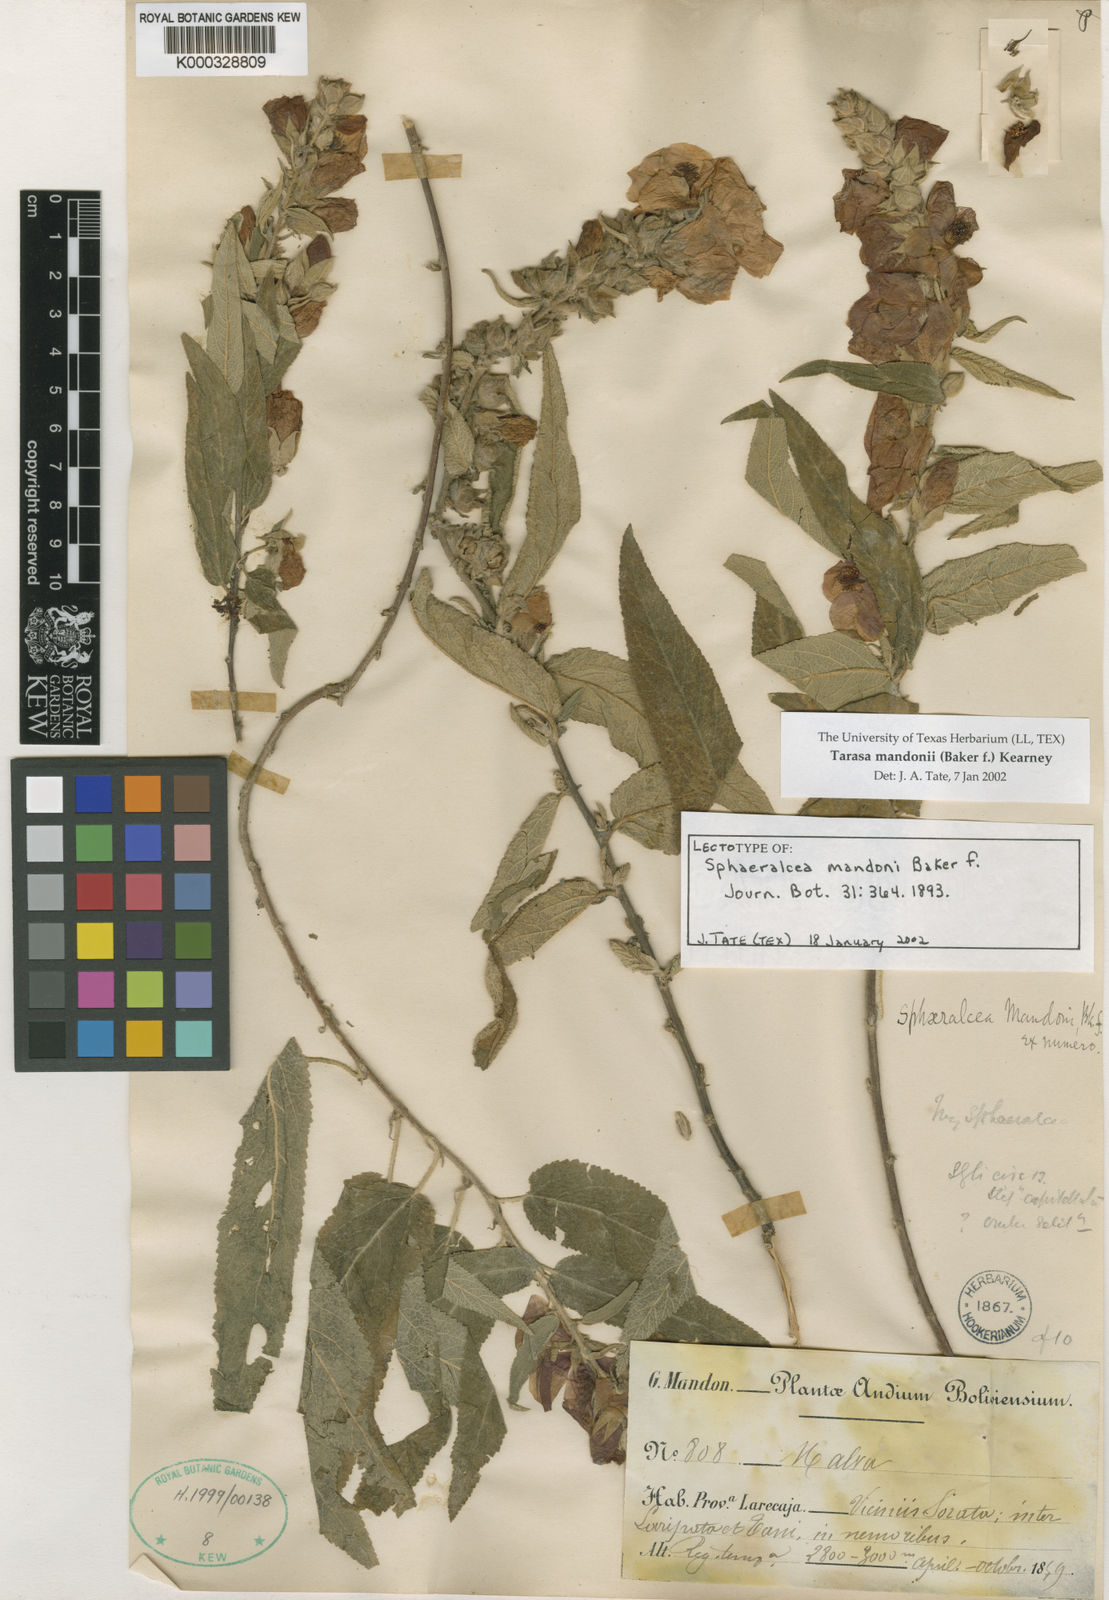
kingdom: Plantae
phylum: Tracheophyta
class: Magnoliopsida
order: Malvales
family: Malvaceae
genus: Andeimalva
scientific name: Andeimalva mandonii
